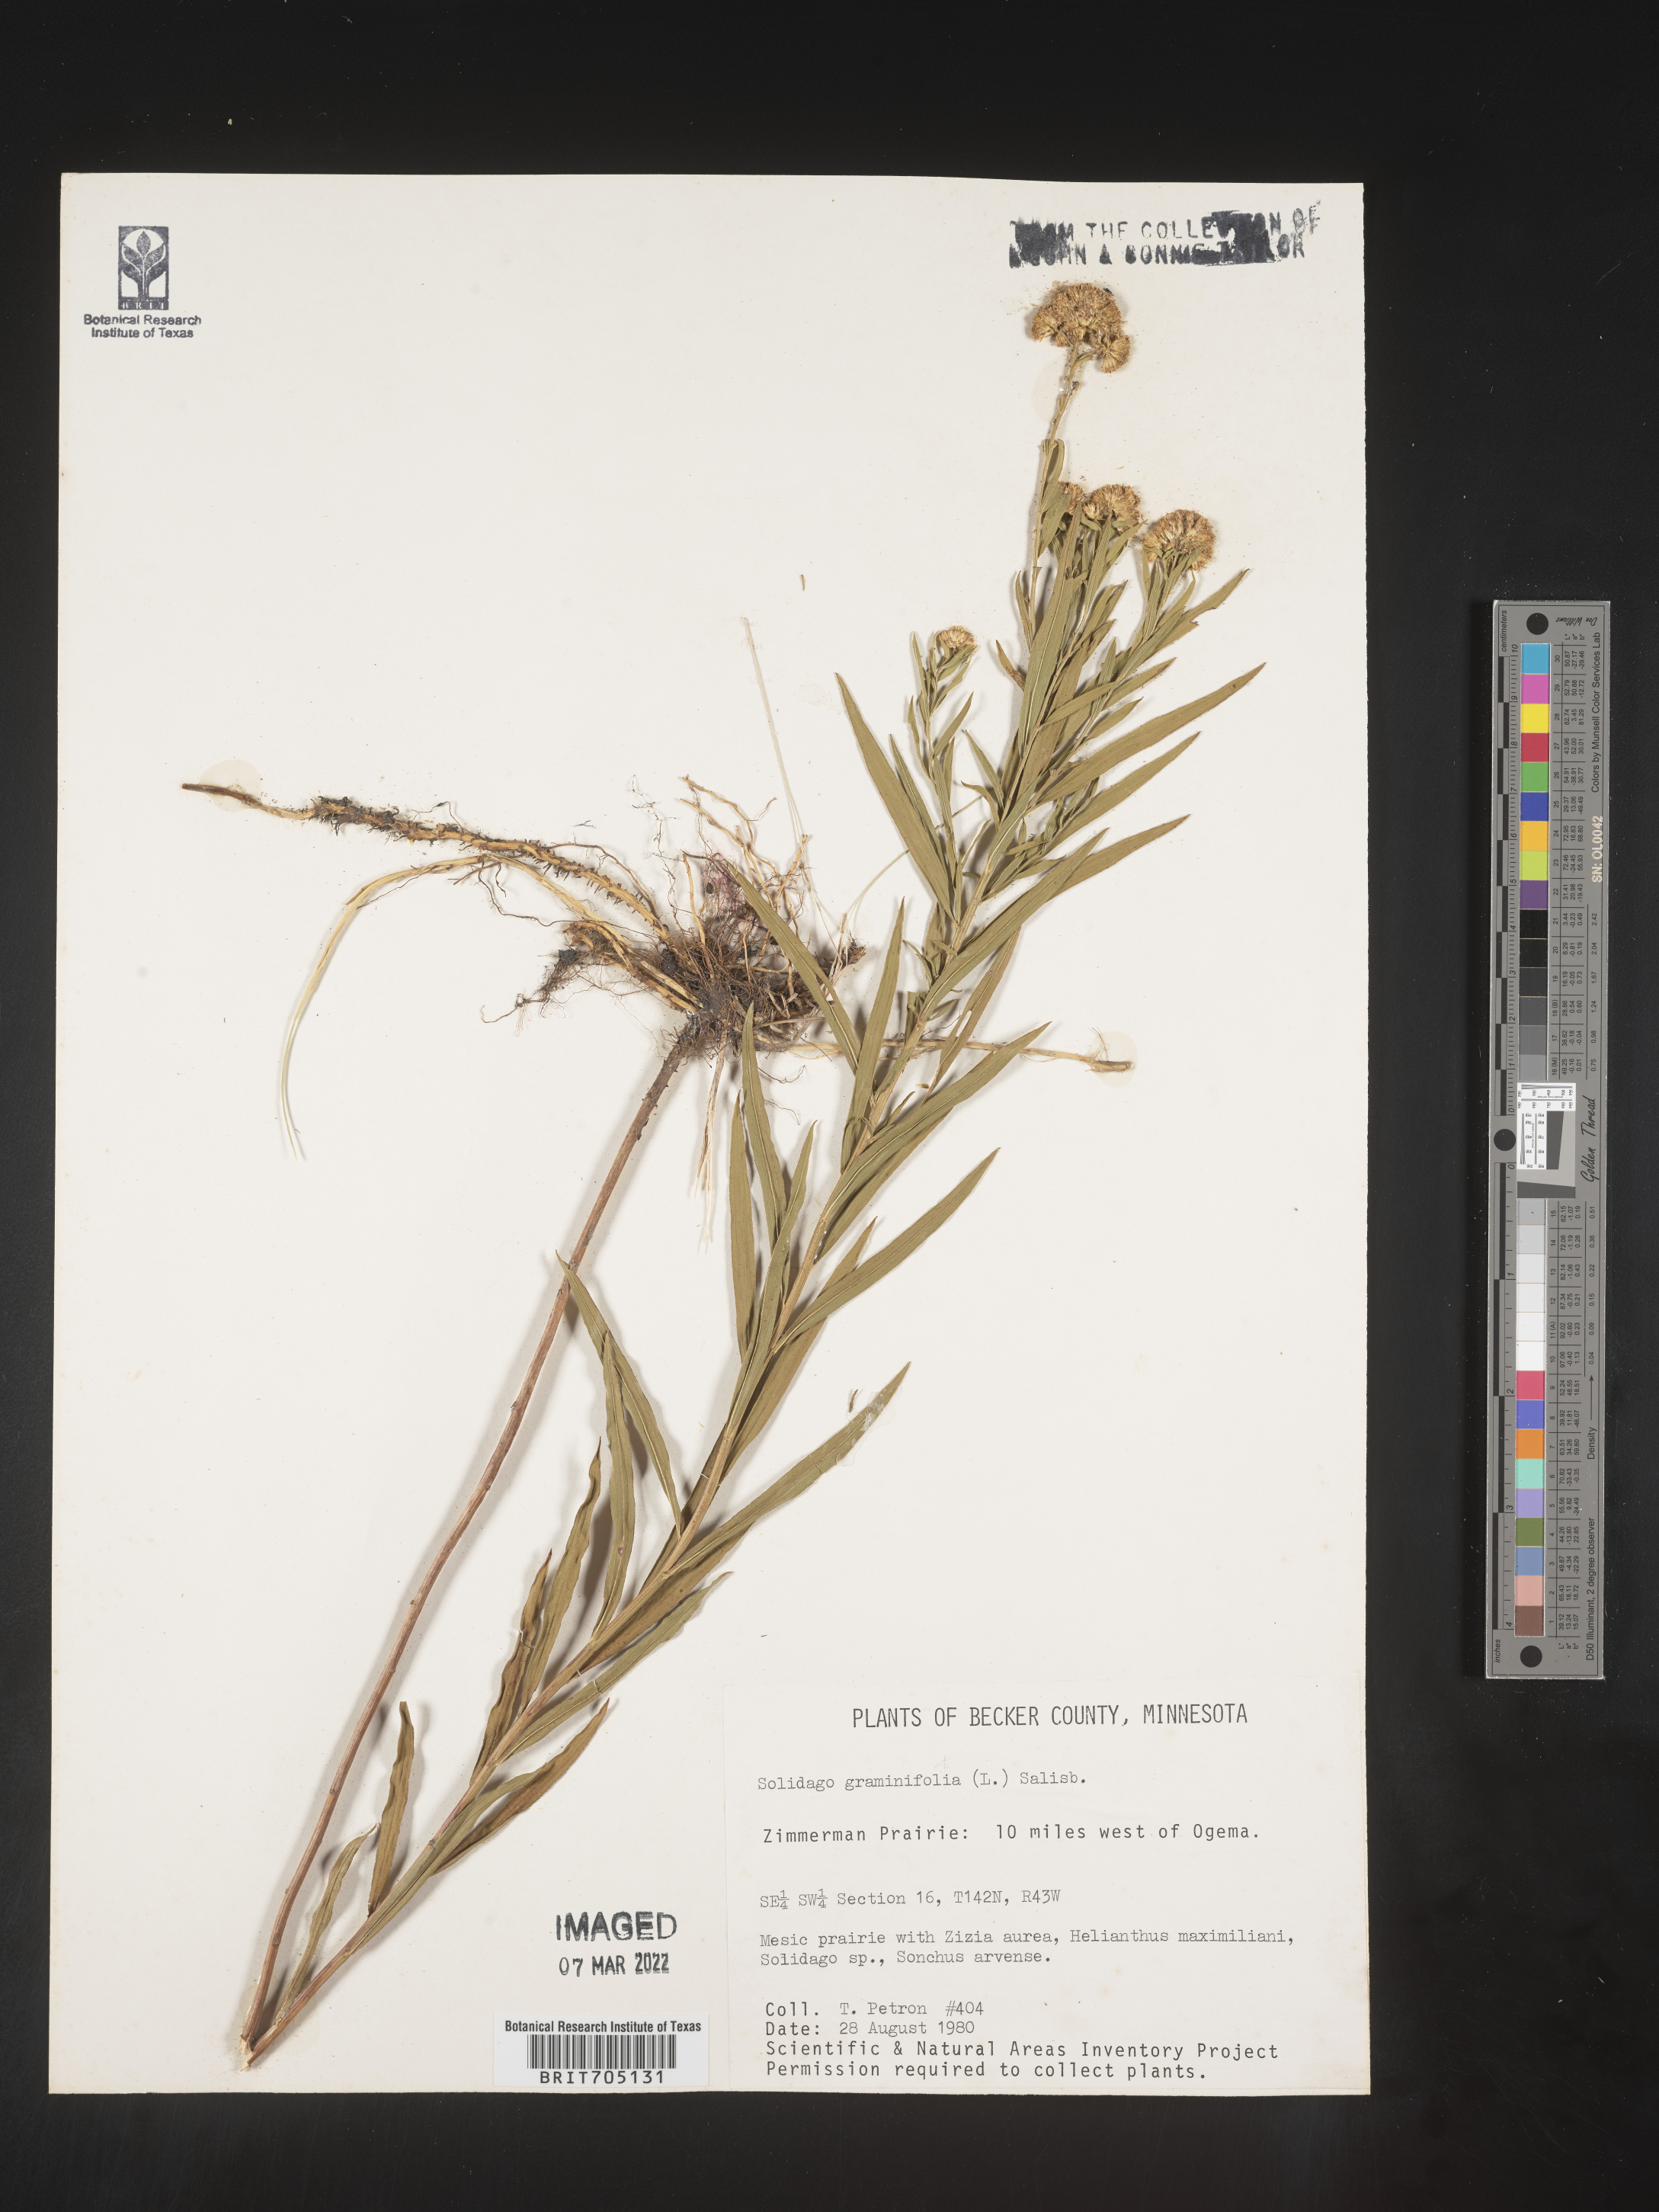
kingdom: Plantae
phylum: Tracheophyta
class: Magnoliopsida
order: Asterales
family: Asteraceae
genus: Euthamia
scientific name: Euthamia graminifolia
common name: Common goldentop
